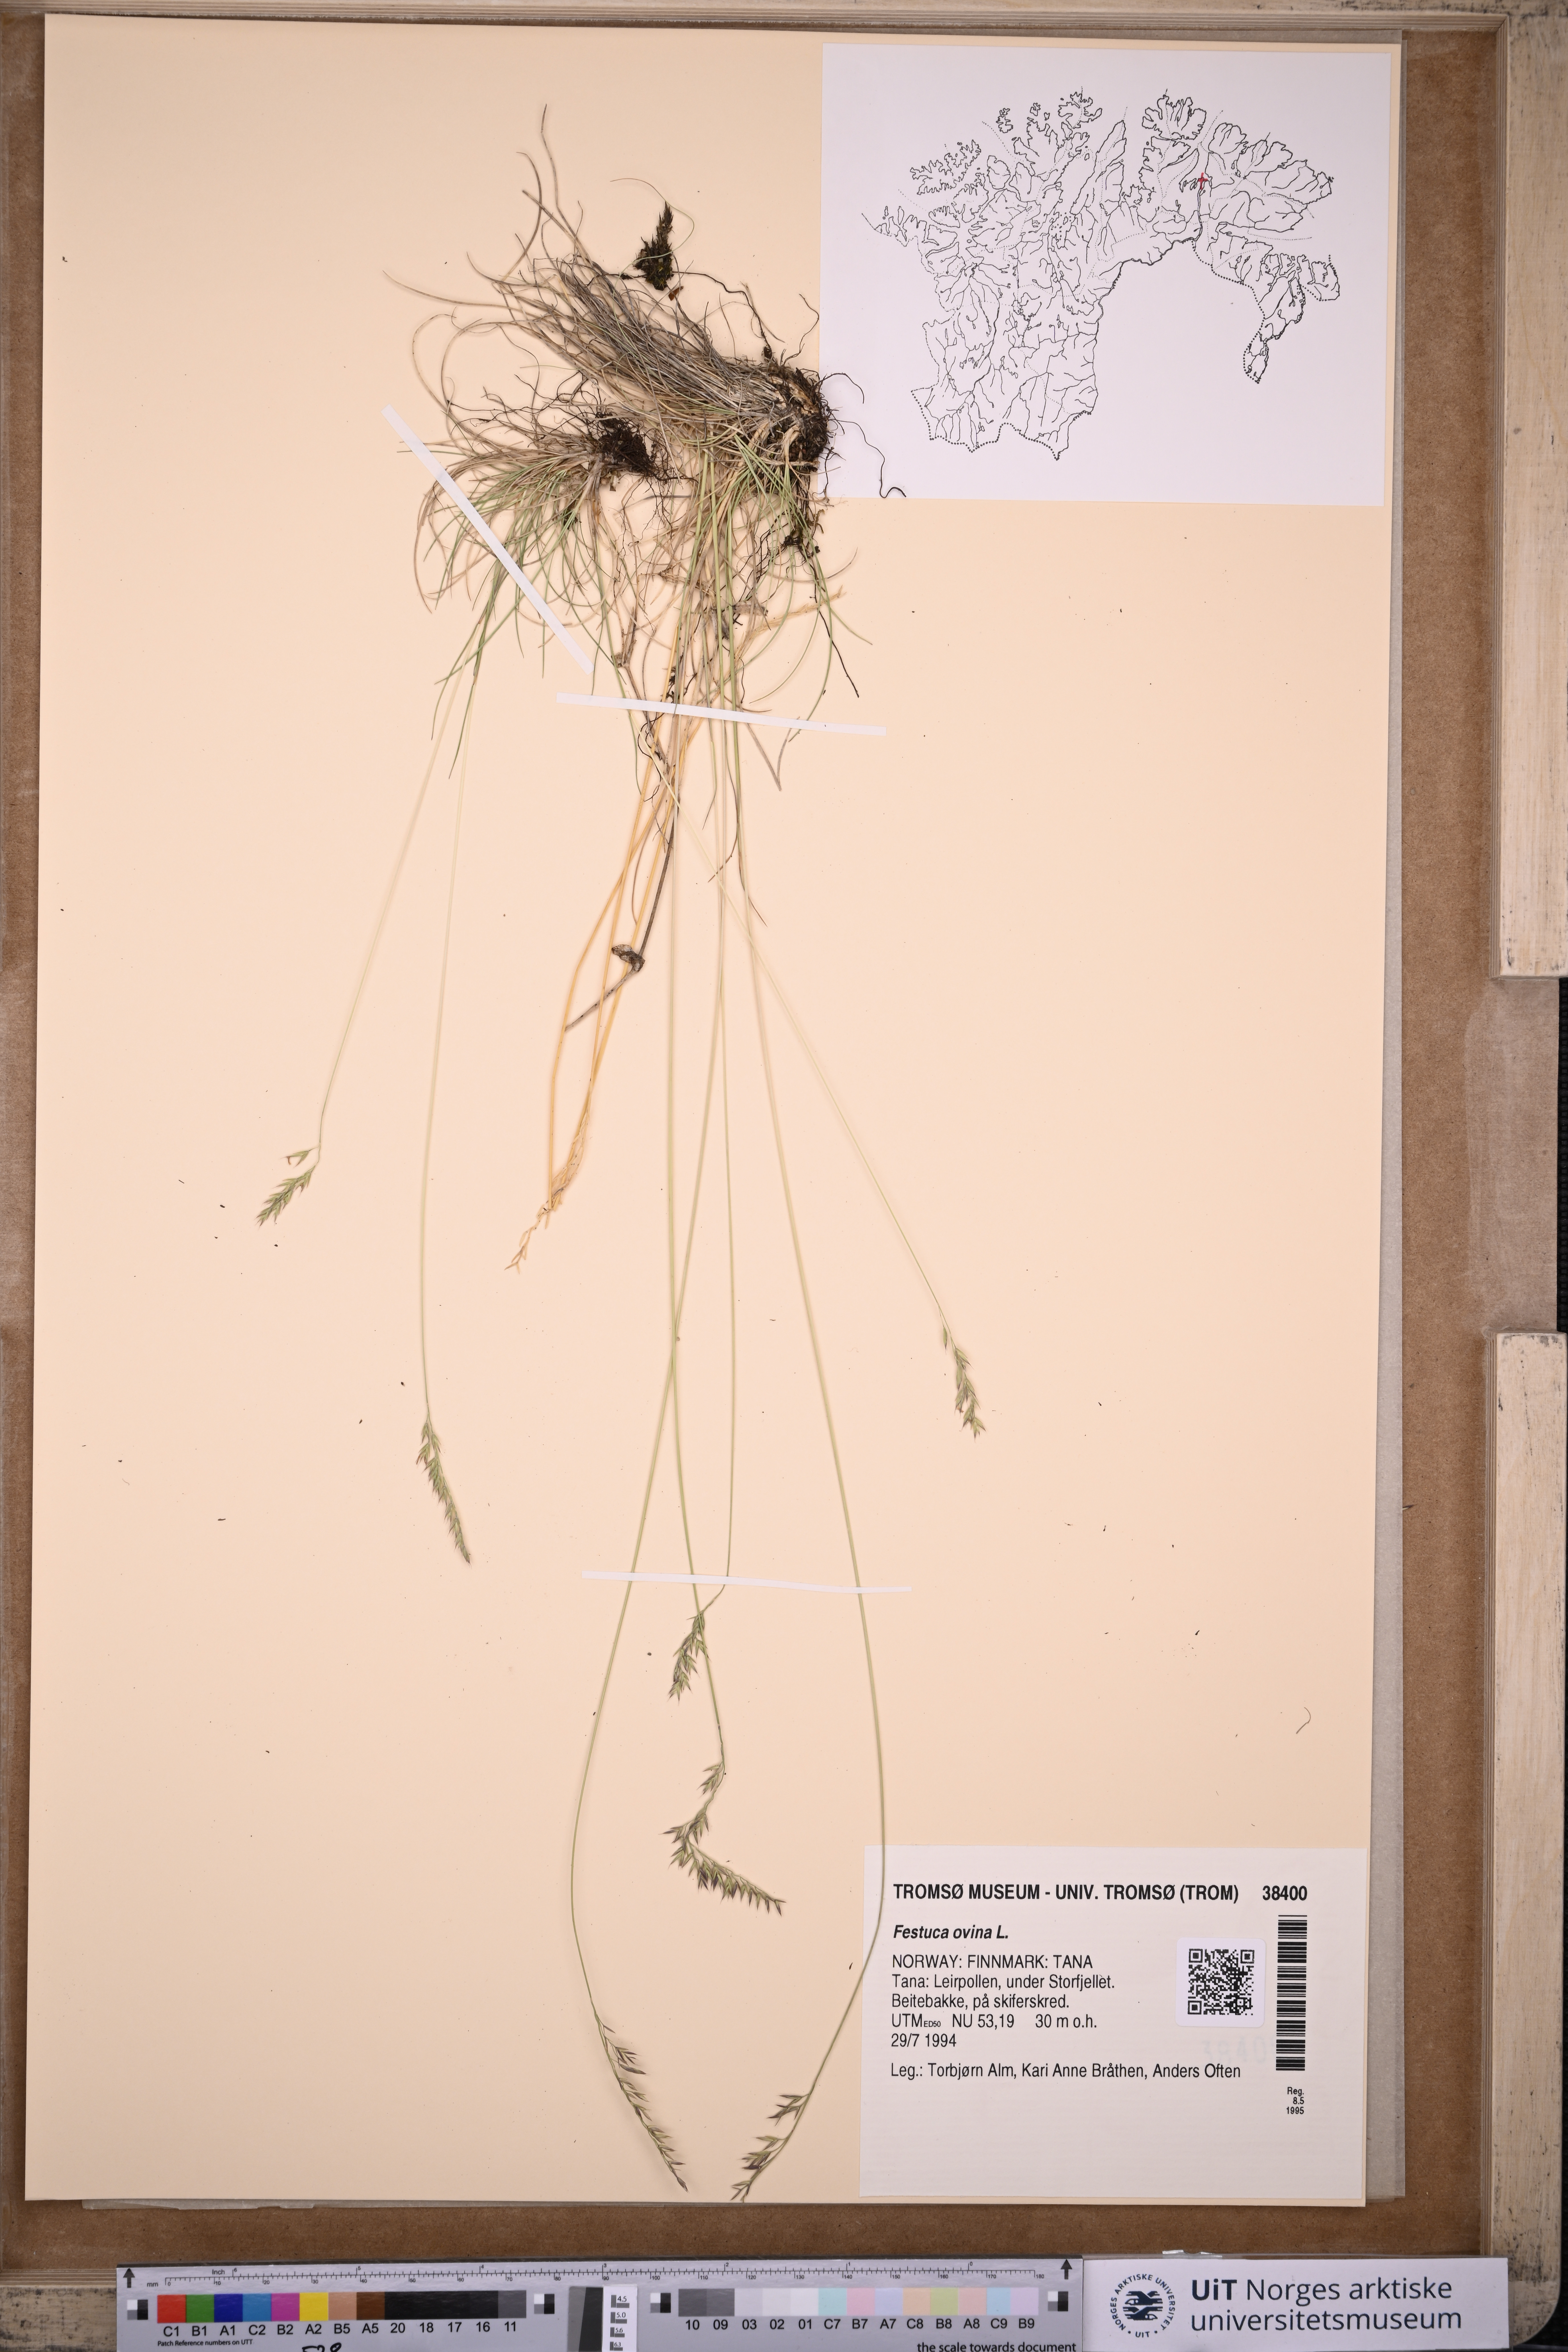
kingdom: Plantae
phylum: Tracheophyta
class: Liliopsida
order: Poales
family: Poaceae
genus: Festuca
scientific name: Festuca ovina
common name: Sheep fescue
